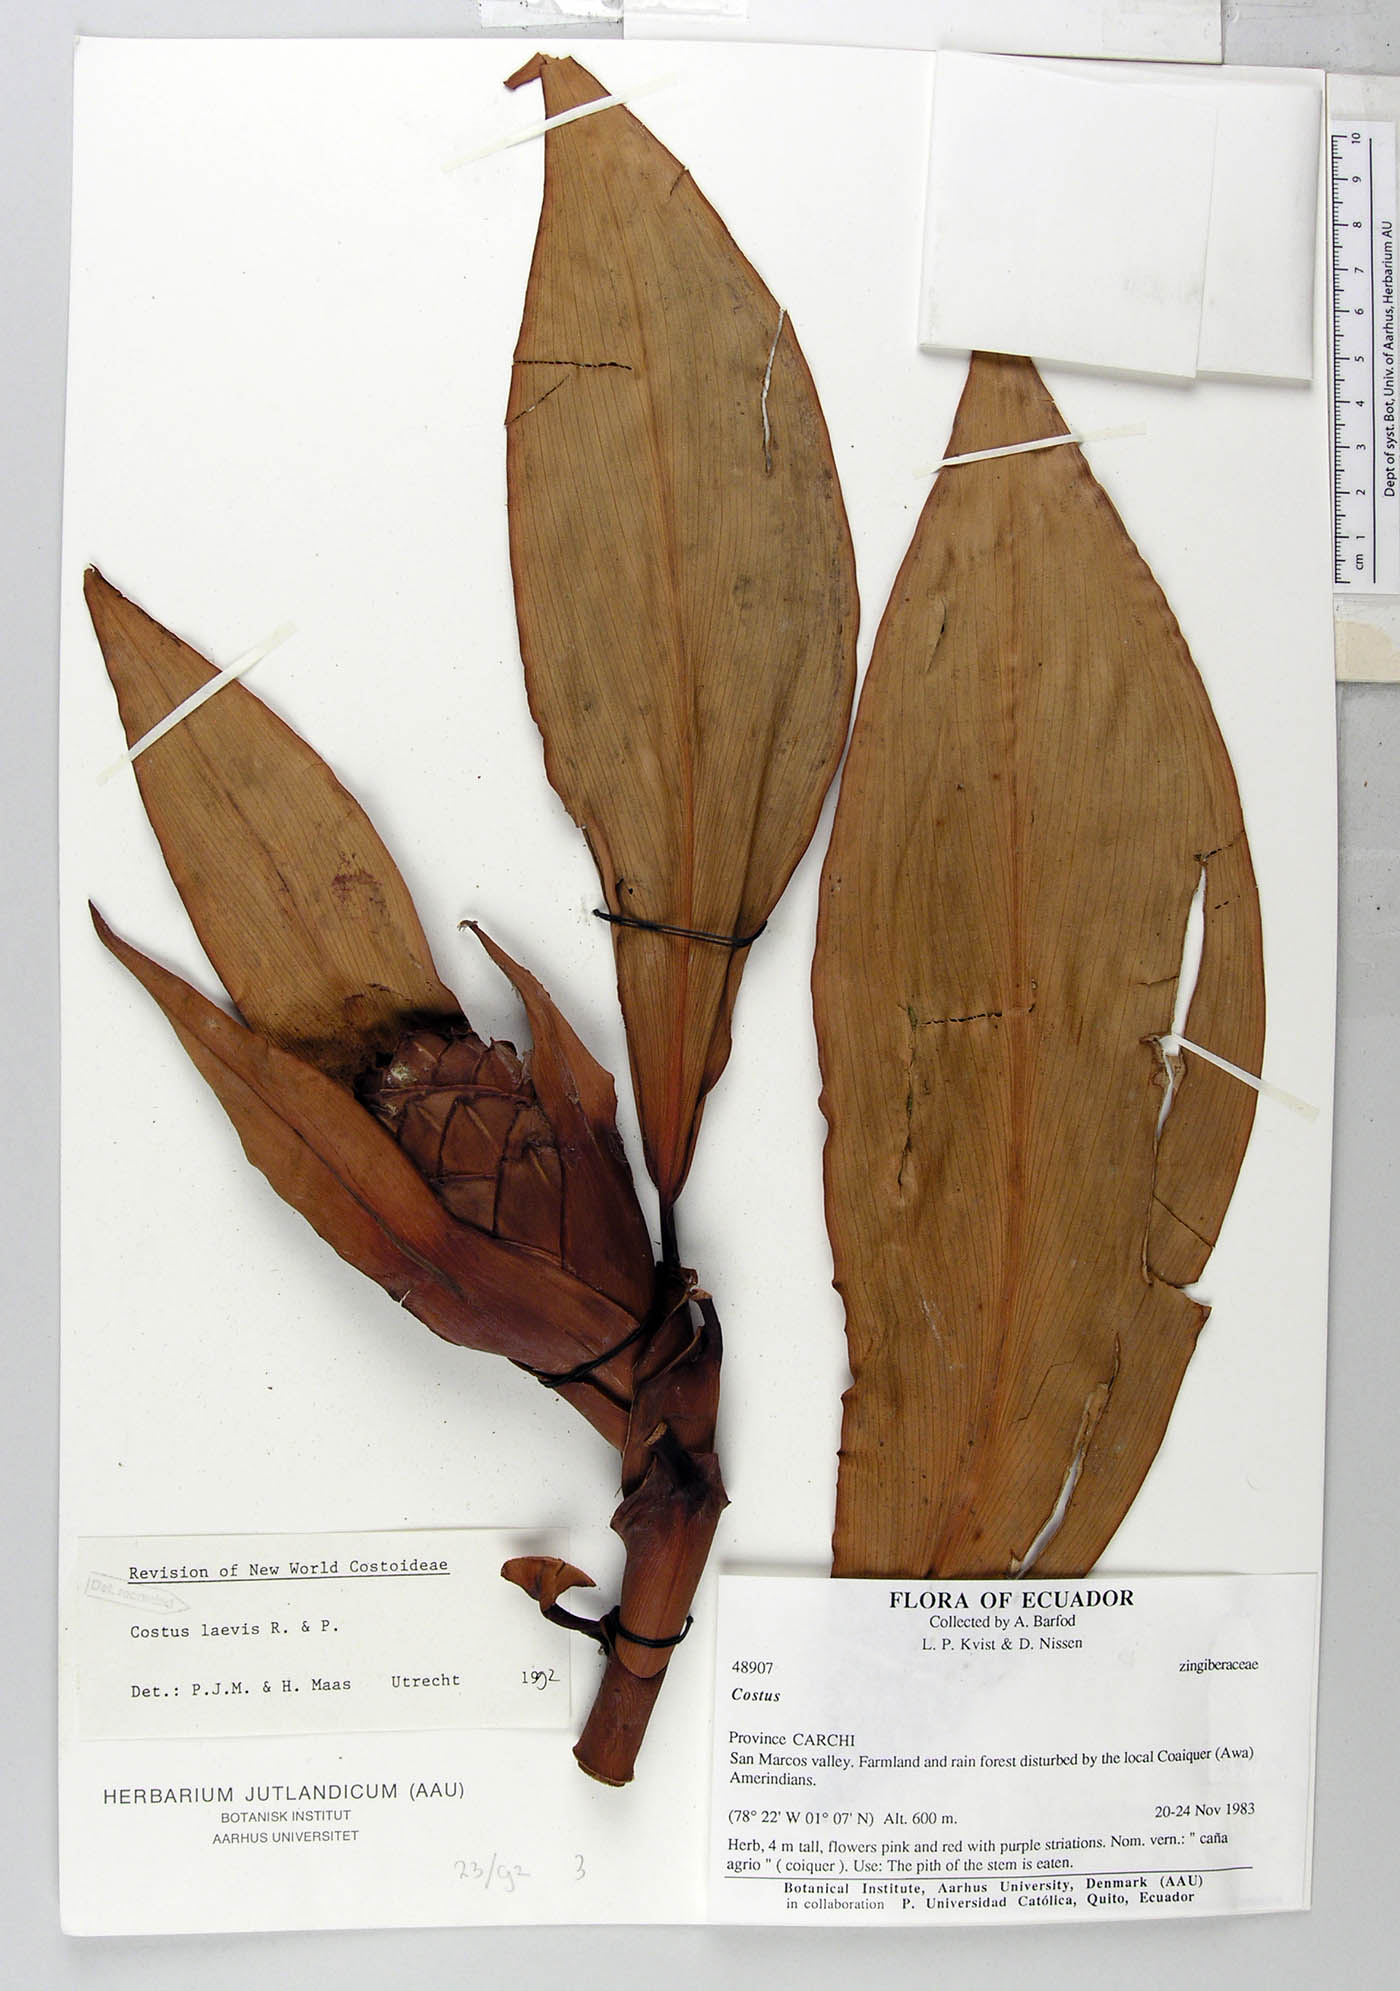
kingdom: Plantae
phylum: Tracheophyta
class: Liliopsida
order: Zingiberales
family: Costaceae
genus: Costus
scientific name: Costus laevis
